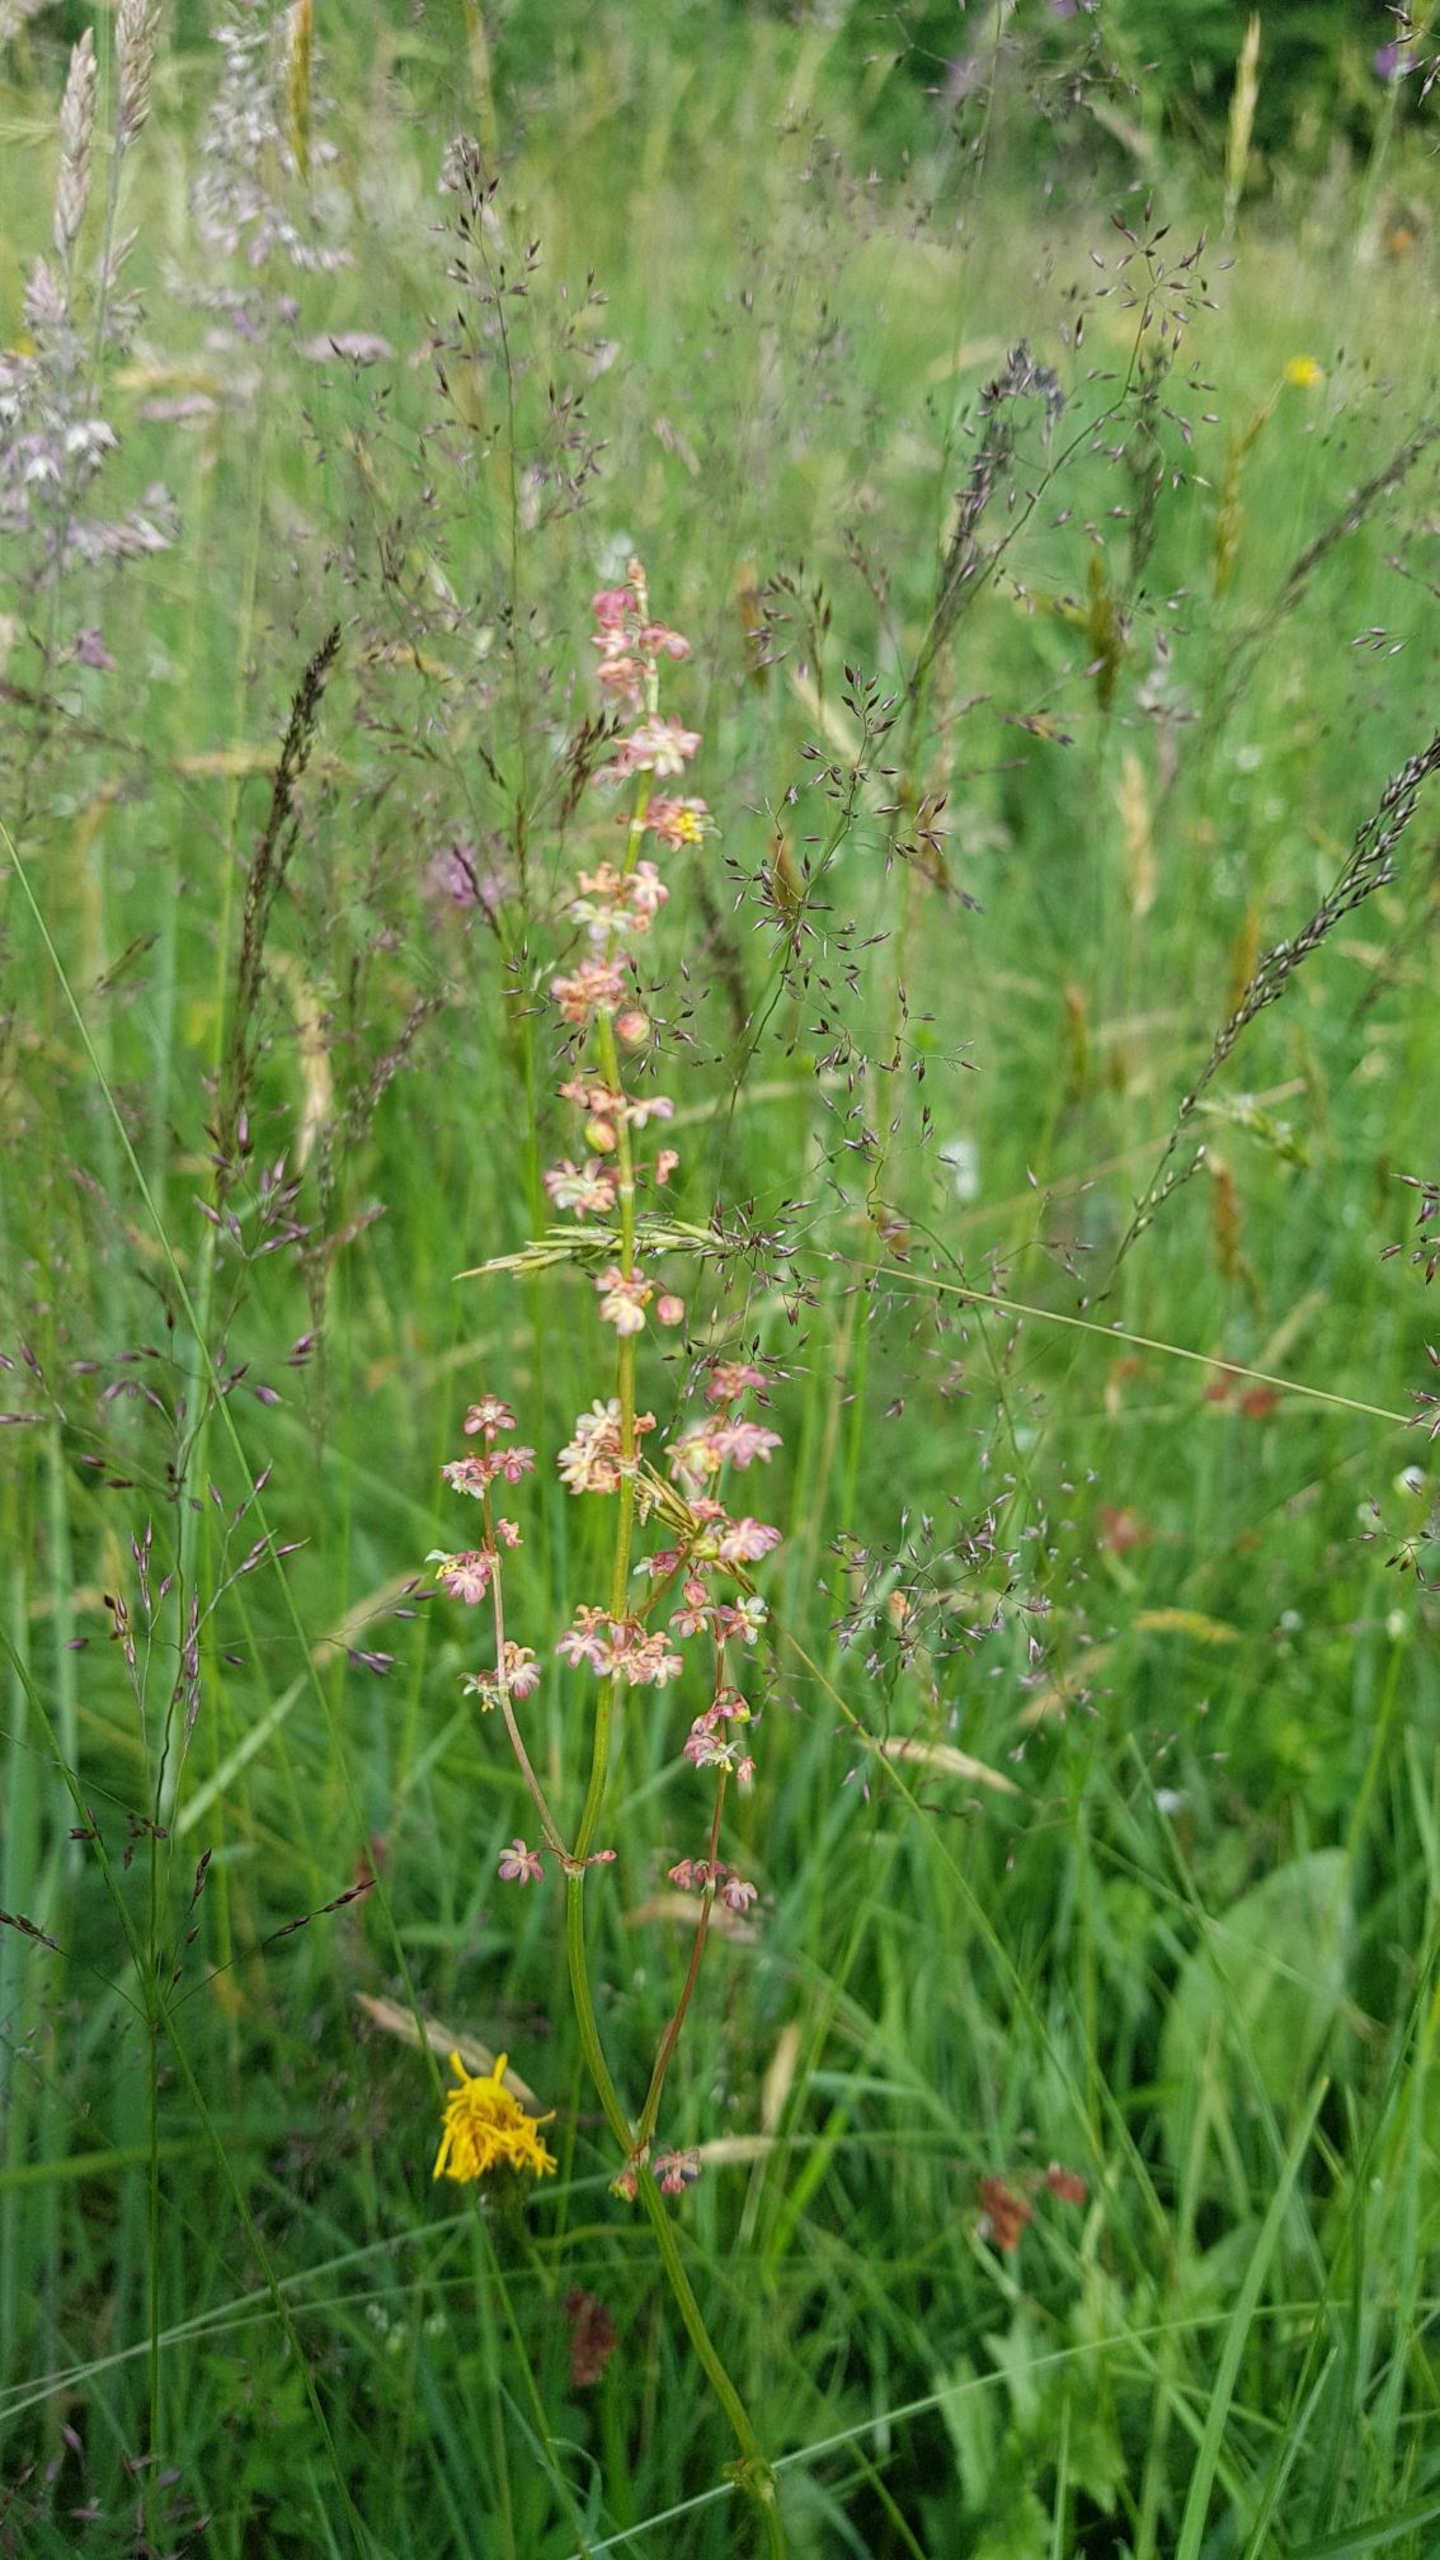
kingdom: Plantae
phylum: Tracheophyta
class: Magnoliopsida
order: Caryophyllales
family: Polygonaceae
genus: Rumex
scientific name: Rumex acetosa
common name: Almindelig syre
